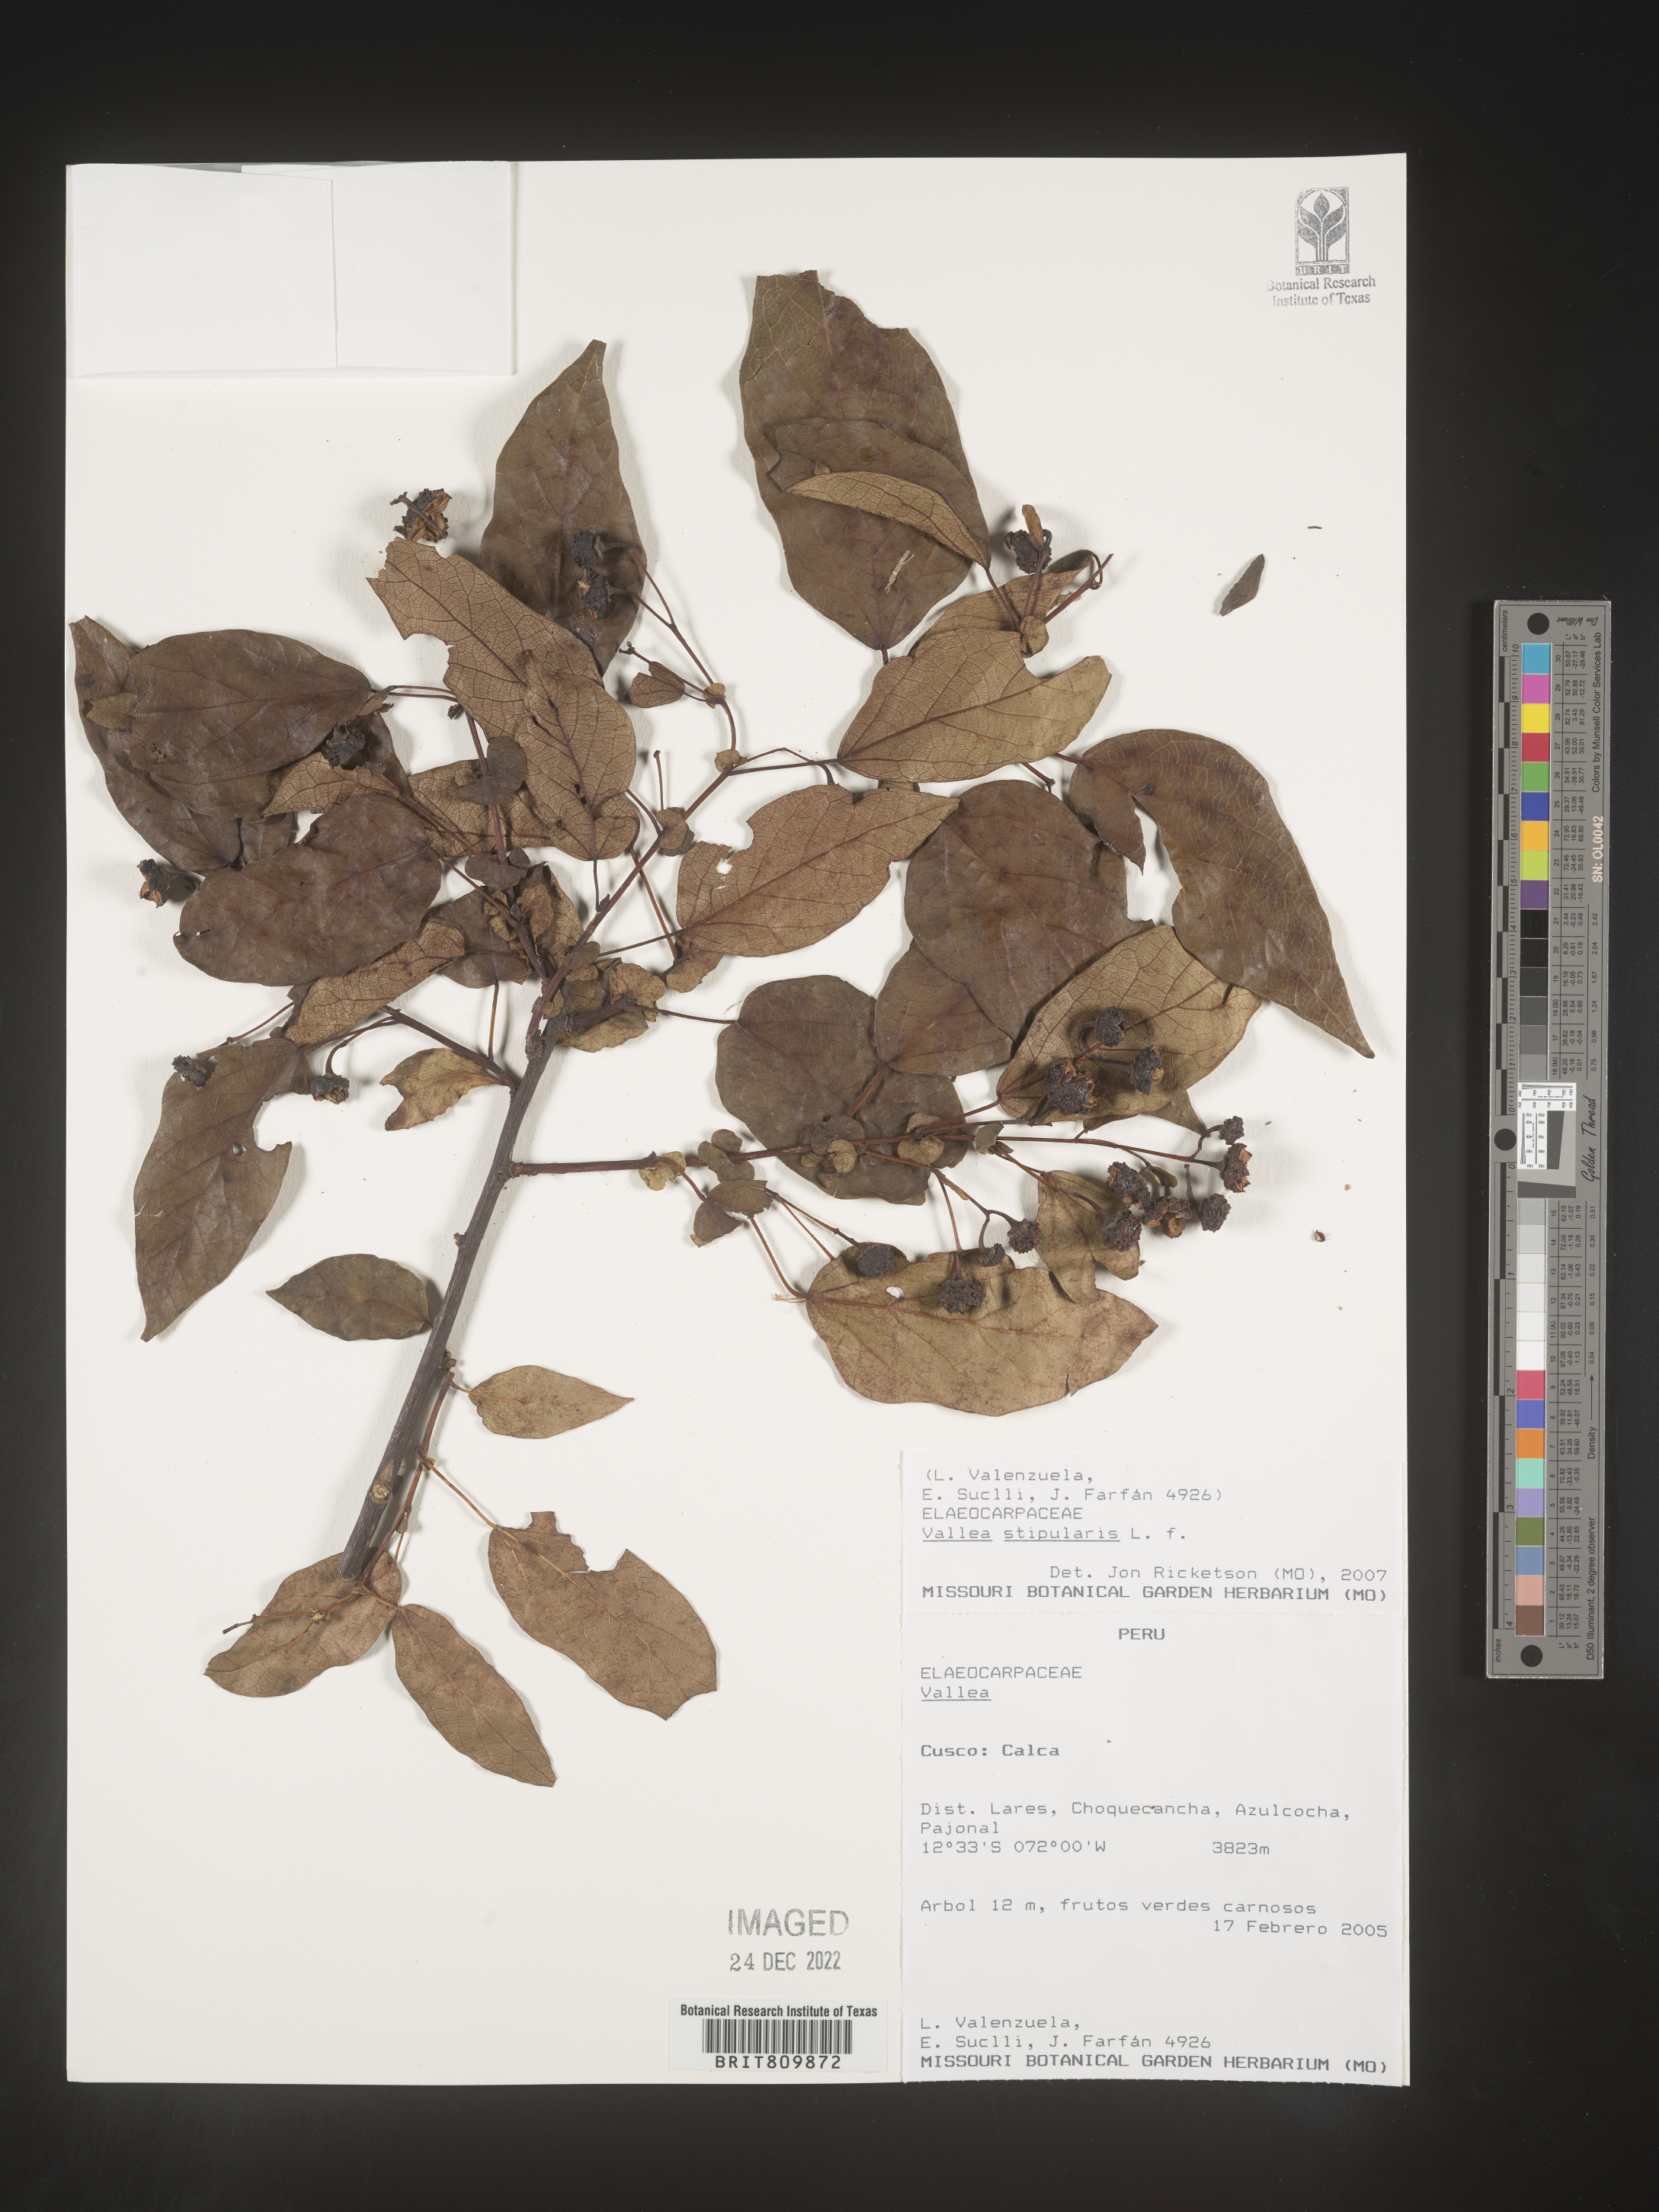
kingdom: Plantae
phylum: Tracheophyta
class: Magnoliopsida
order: Oxalidales
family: Elaeocarpaceae
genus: Vallea
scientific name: Vallea
